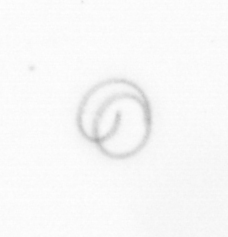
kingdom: Chromista
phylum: Ochrophyta
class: Bacillariophyceae
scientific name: Bacillariophyceae
